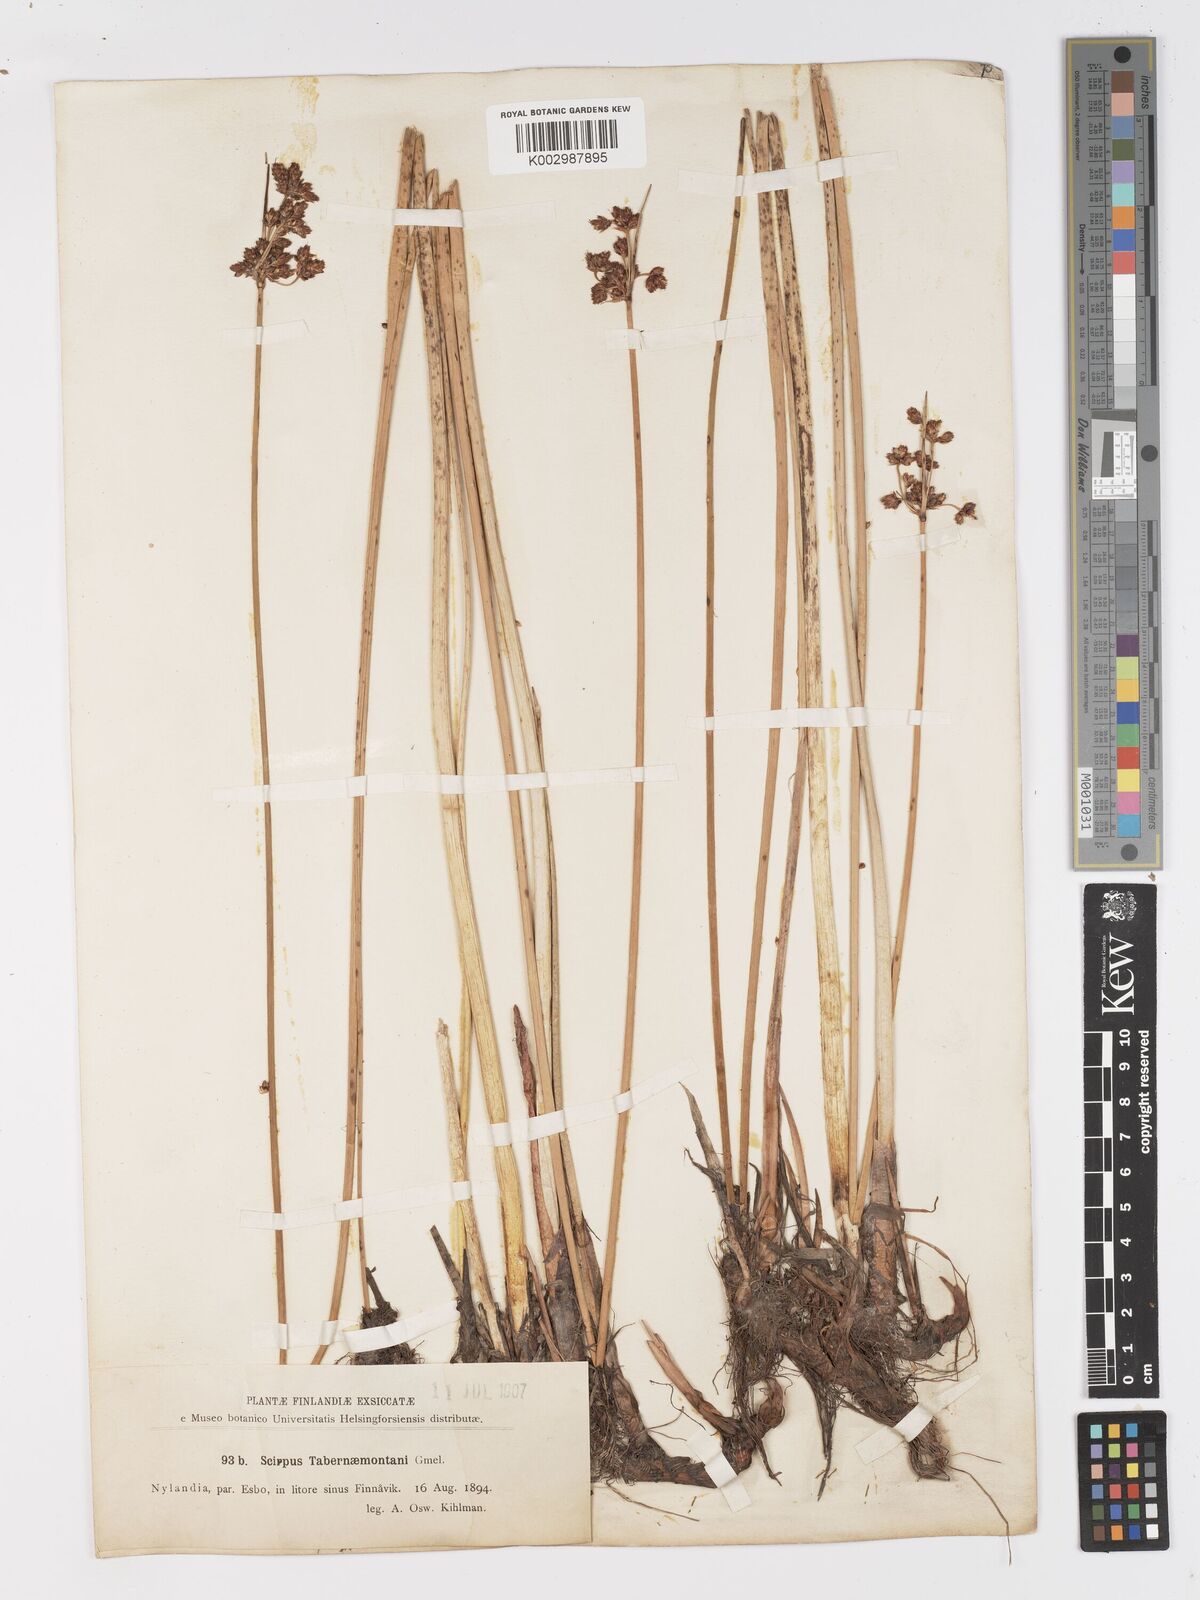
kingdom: Plantae
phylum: Tracheophyta
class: Liliopsida
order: Poales
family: Cyperaceae
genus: Schoenoplectus
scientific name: Schoenoplectus tabernaemontani
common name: Grey club-rush
